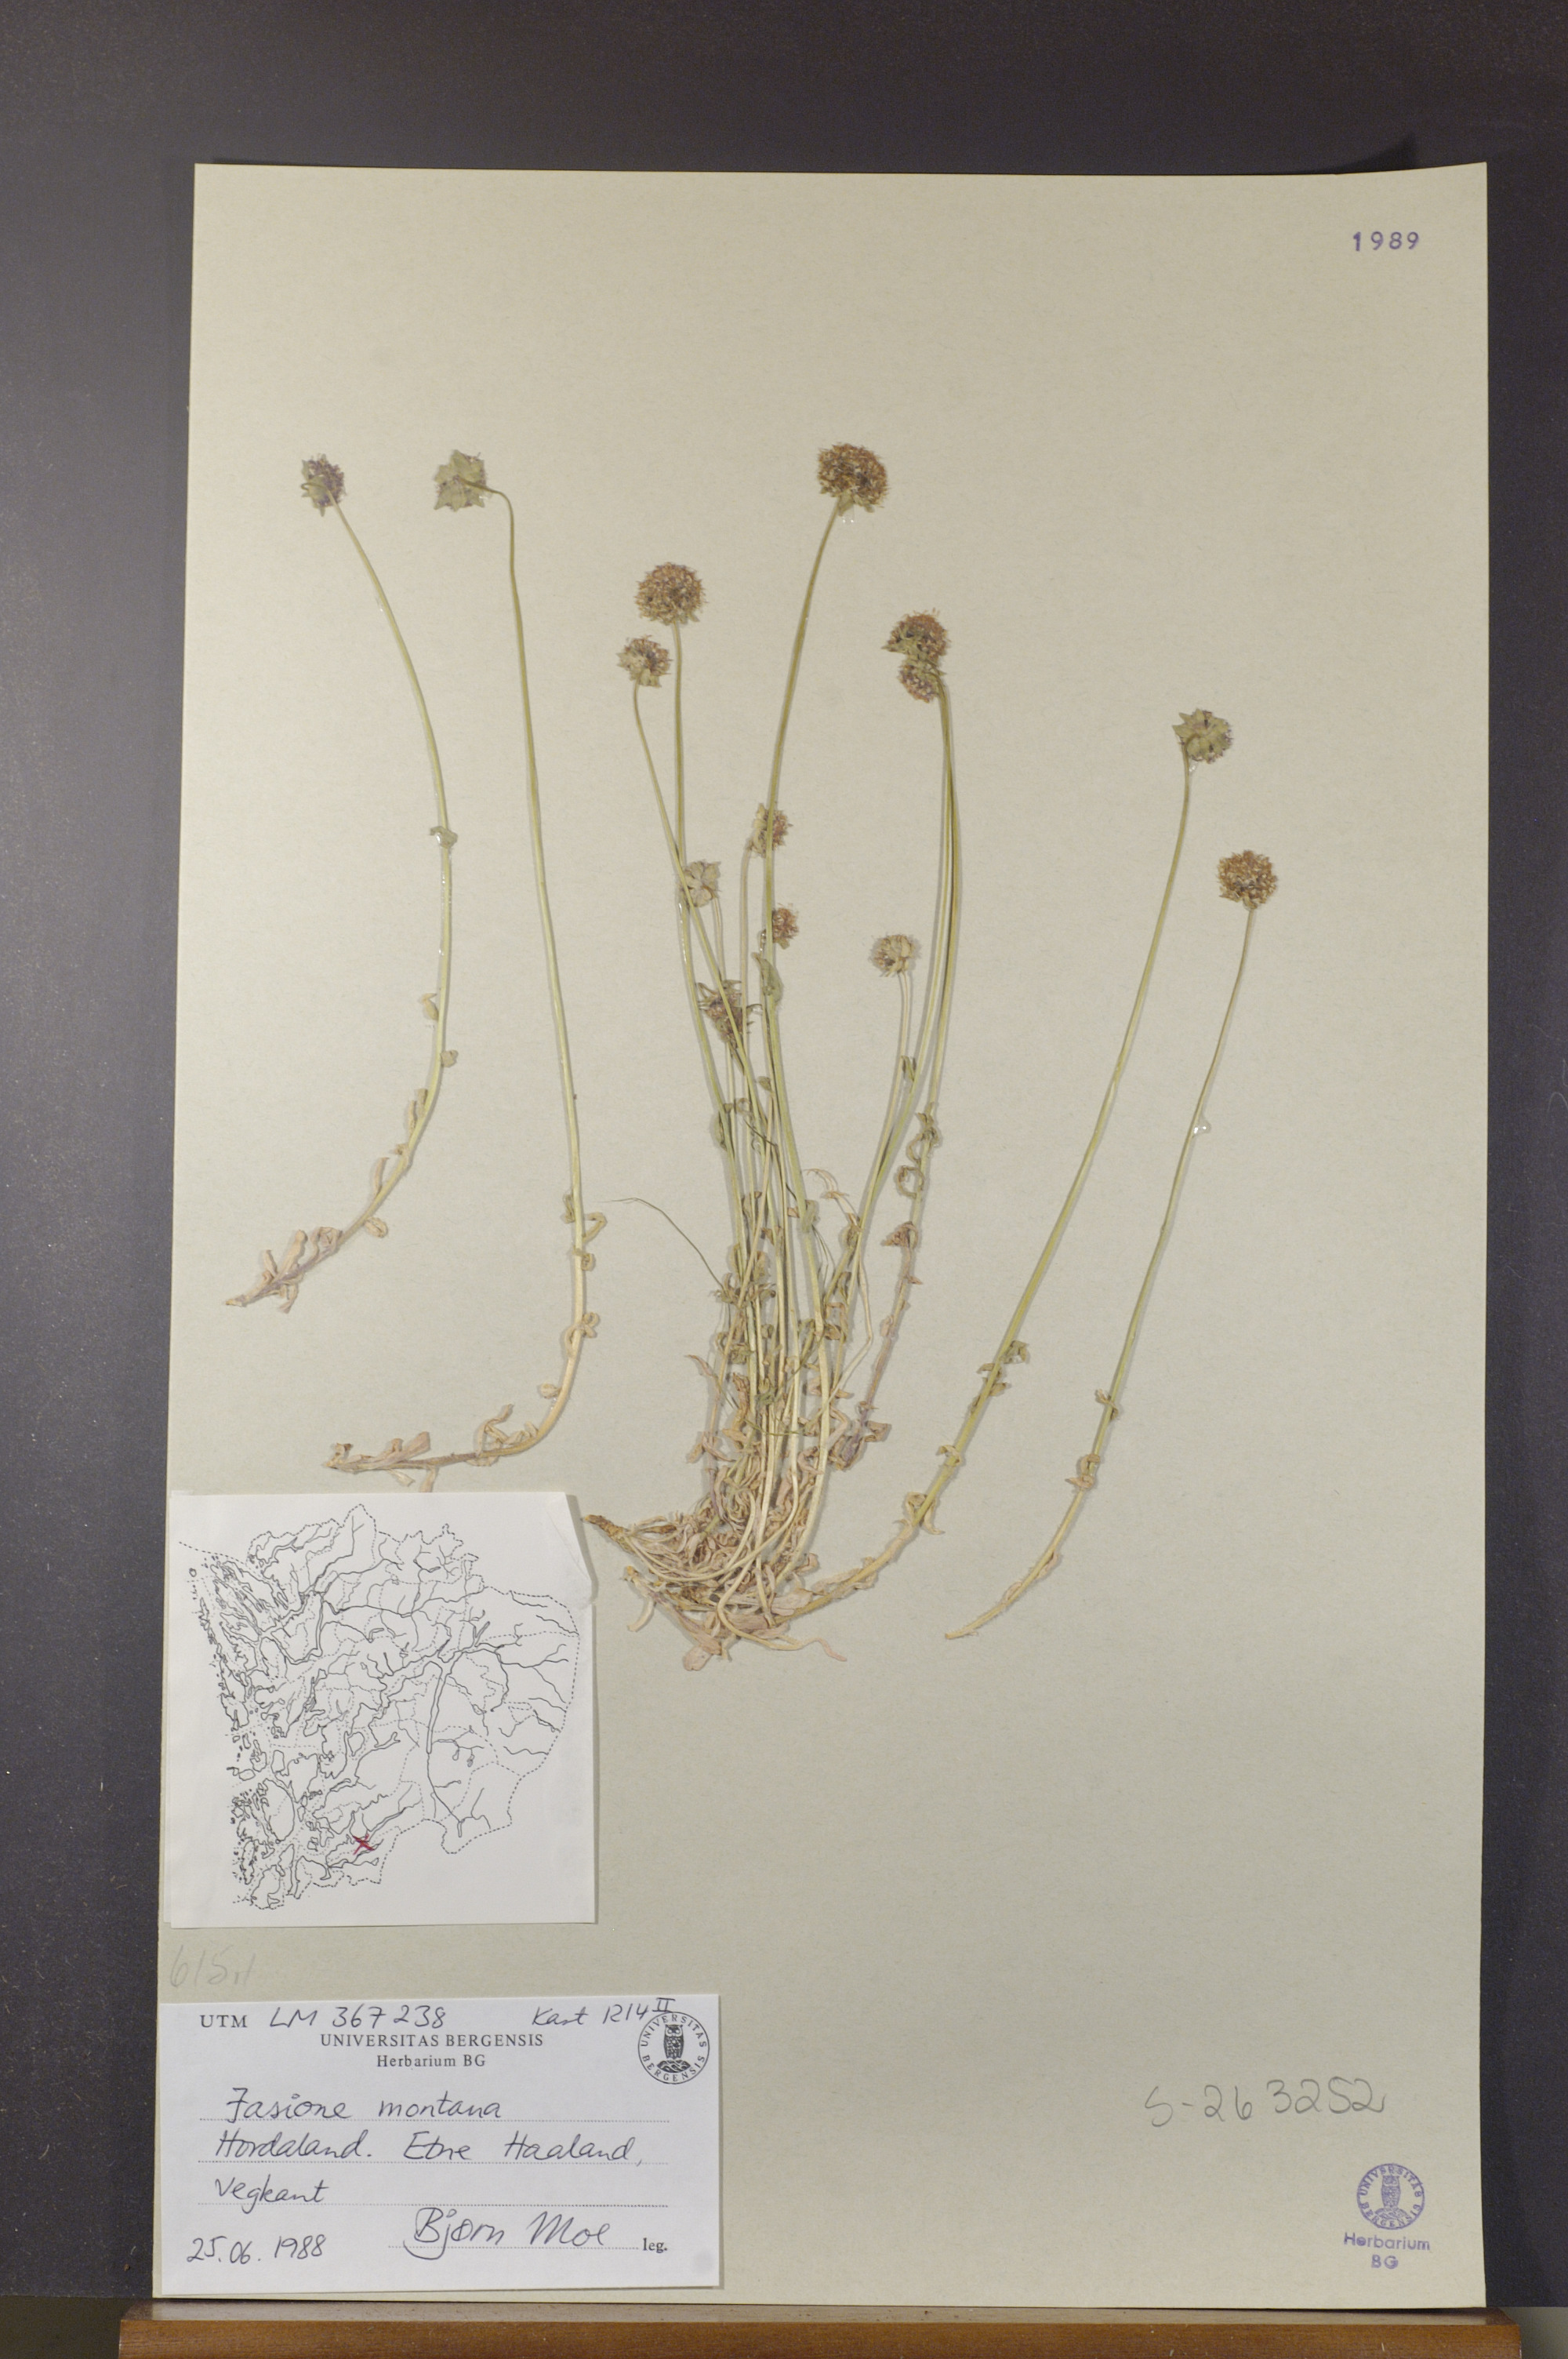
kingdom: Plantae
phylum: Tracheophyta
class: Magnoliopsida
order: Asterales
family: Campanulaceae
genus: Jasione
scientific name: Jasione montana
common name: Sheep's-bit
